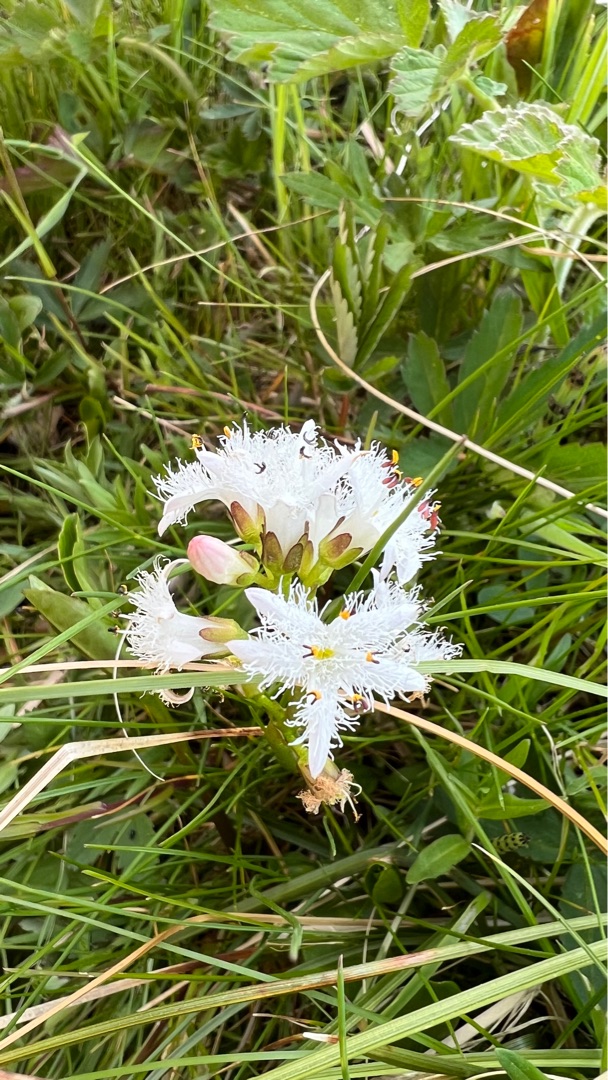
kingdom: Plantae
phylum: Tracheophyta
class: Magnoliopsida
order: Asterales
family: Menyanthaceae
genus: Menyanthes
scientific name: Menyanthes trifoliata
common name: Bukkeblad
